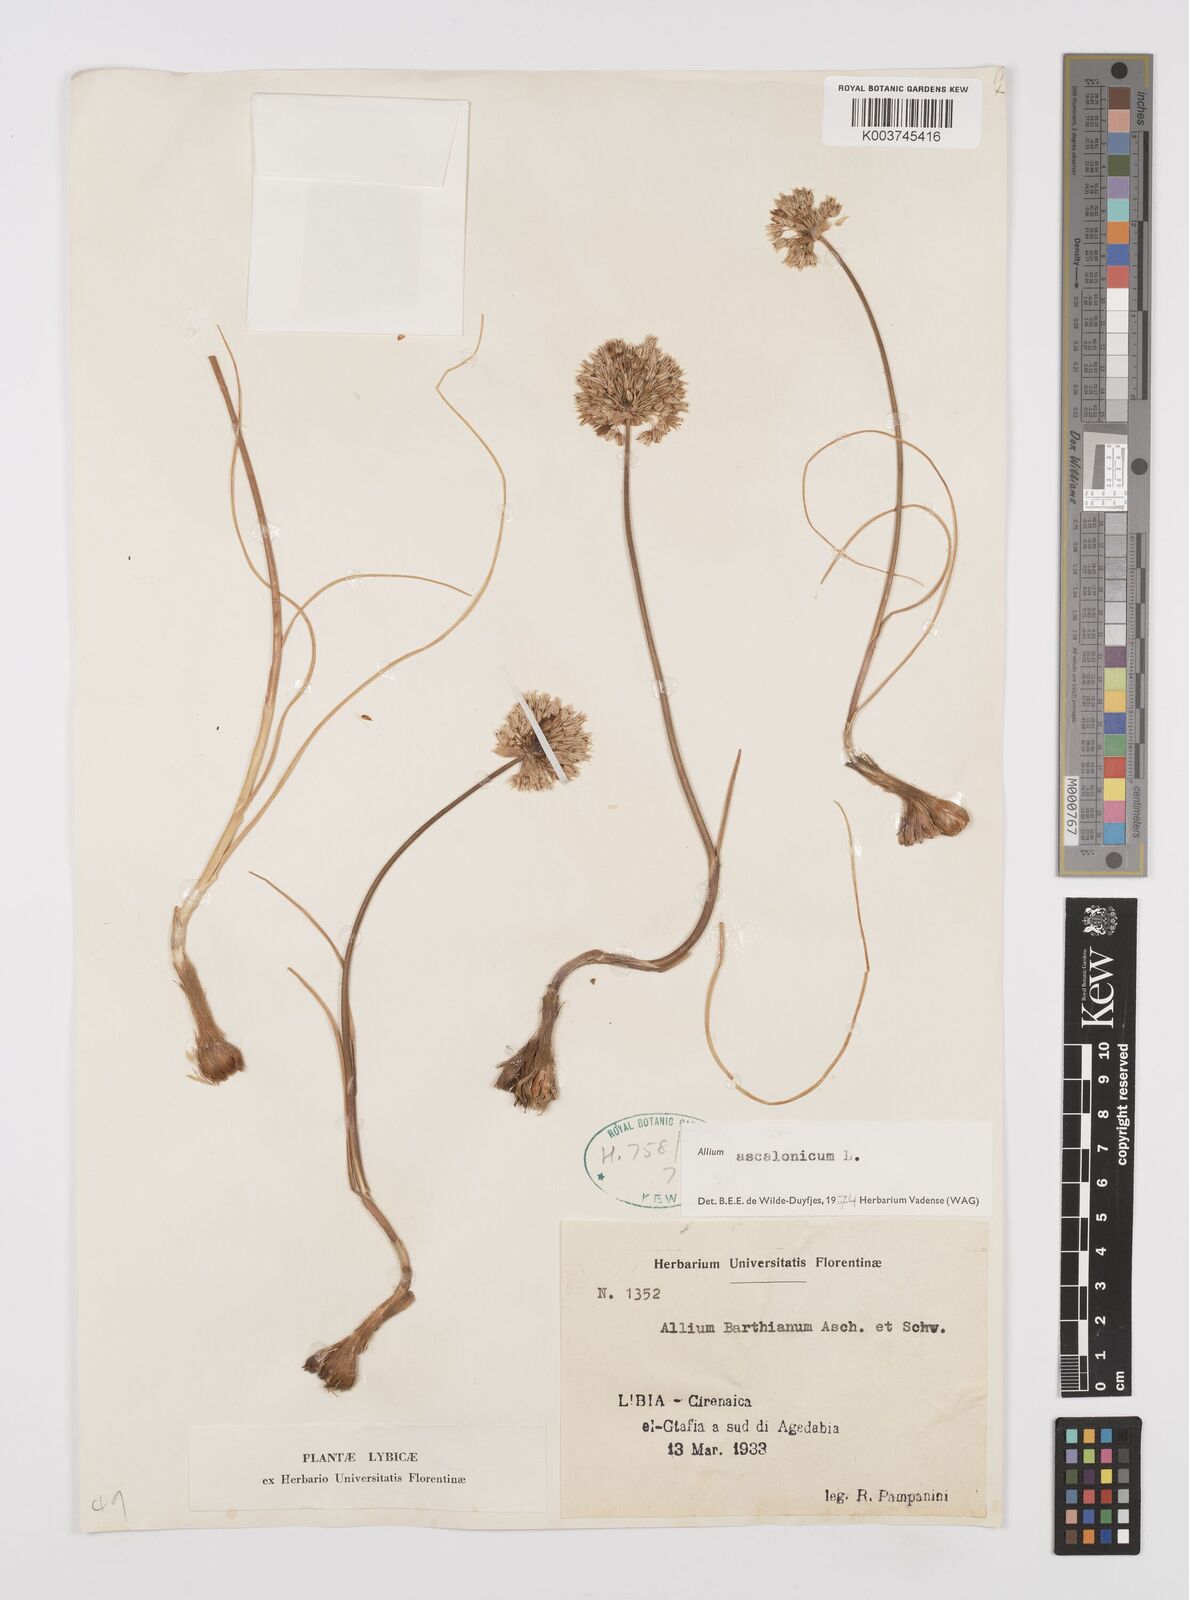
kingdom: Plantae
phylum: Tracheophyta
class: Liliopsida
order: Asparagales
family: Amaryllidaceae
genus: Allium
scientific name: Allium ascalonicum
